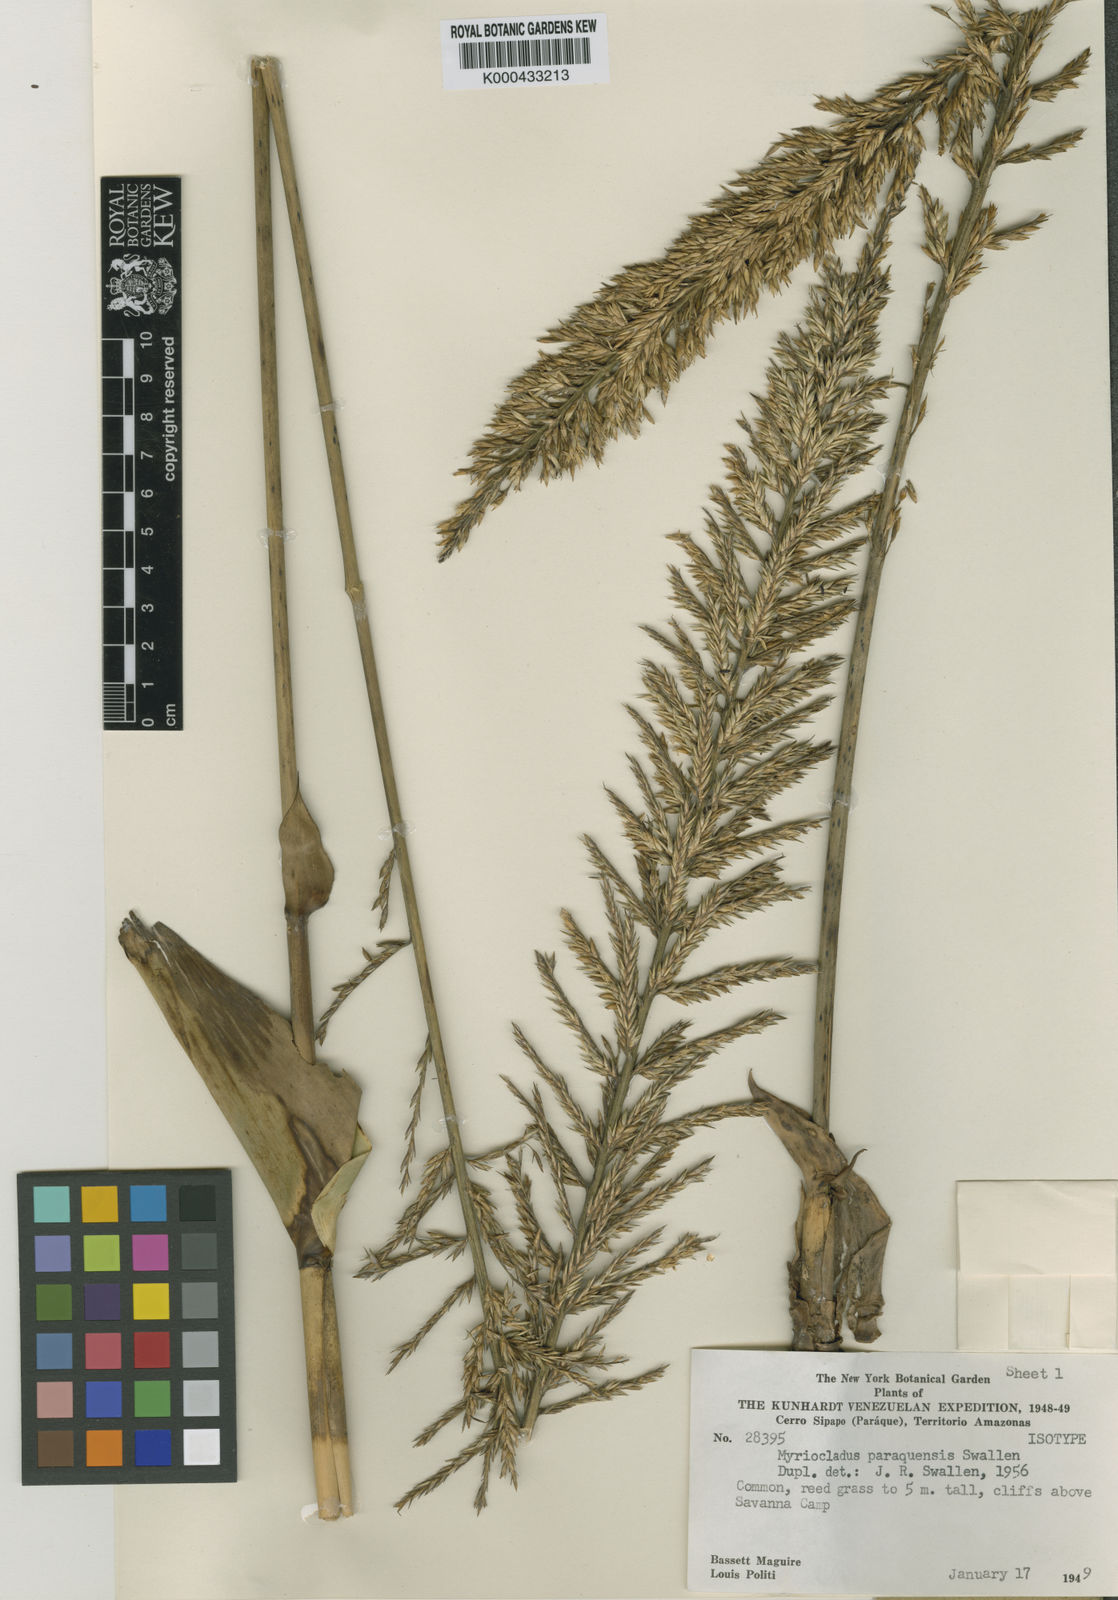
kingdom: Plantae
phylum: Tracheophyta
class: Liliopsida
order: Poales
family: Poaceae
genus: Myriocladus
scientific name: Myriocladus grandifolius
